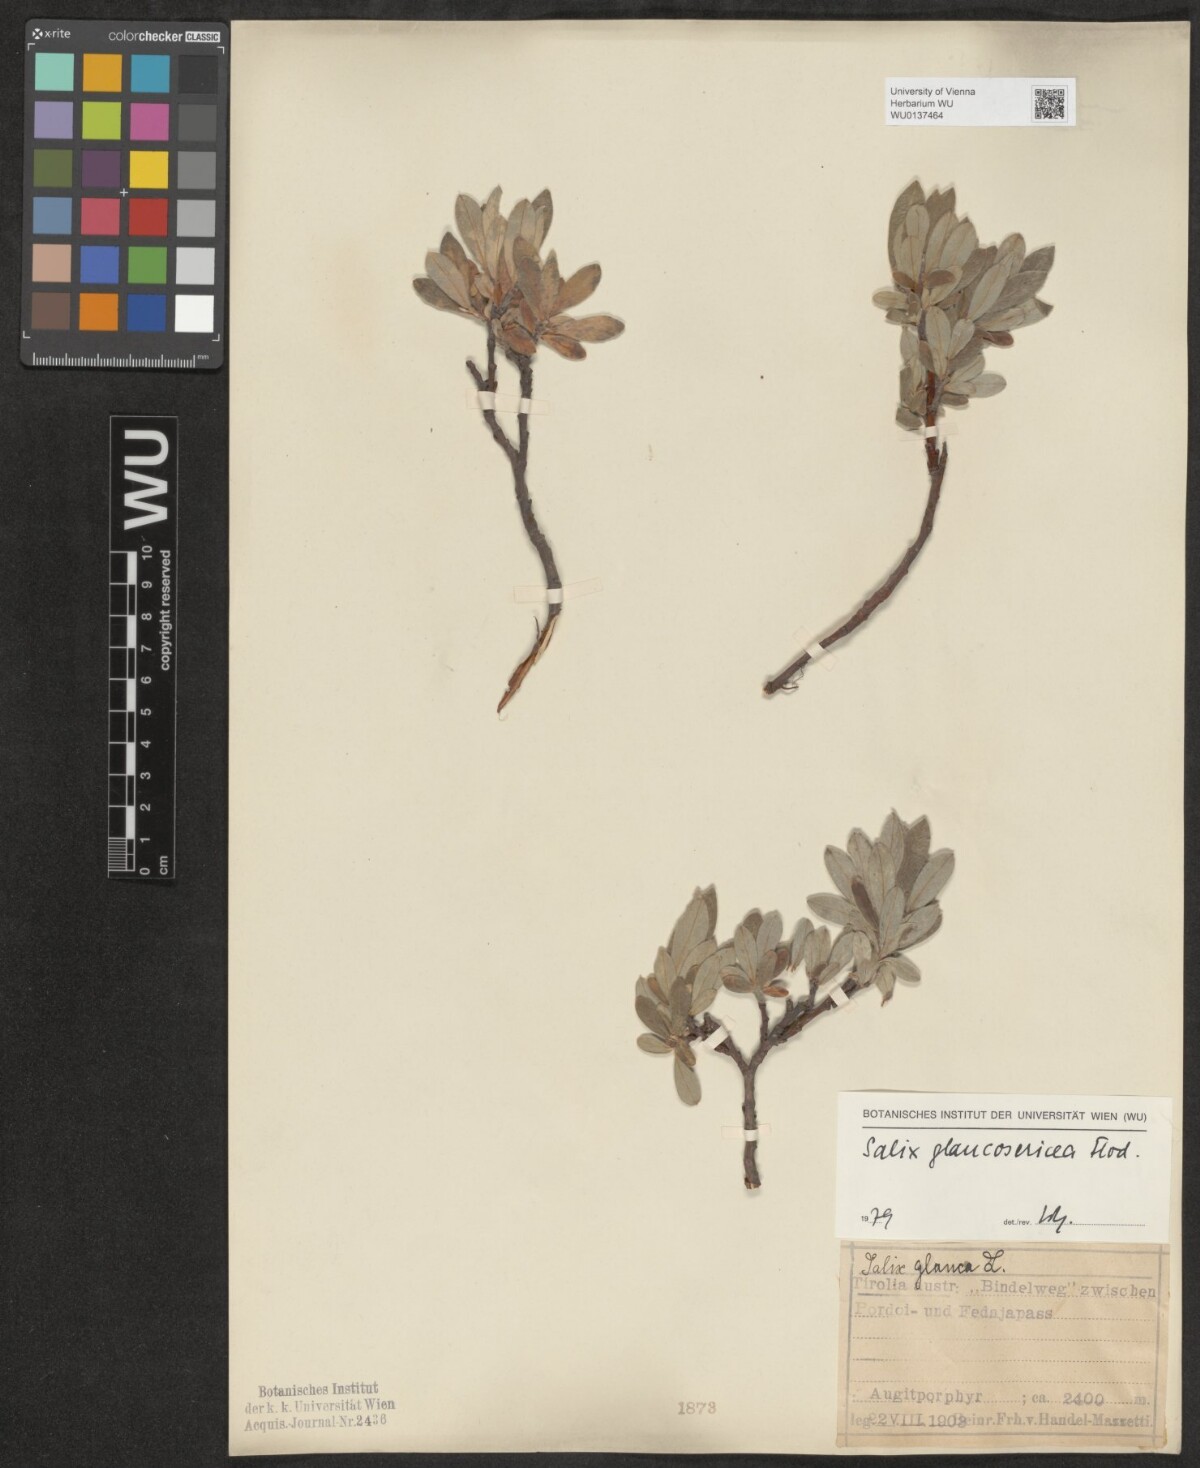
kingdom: Plantae
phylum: Tracheophyta
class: Magnoliopsida
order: Malpighiales
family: Salicaceae
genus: Salix
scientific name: Salix glaucosericea
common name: Alpine gray willow
